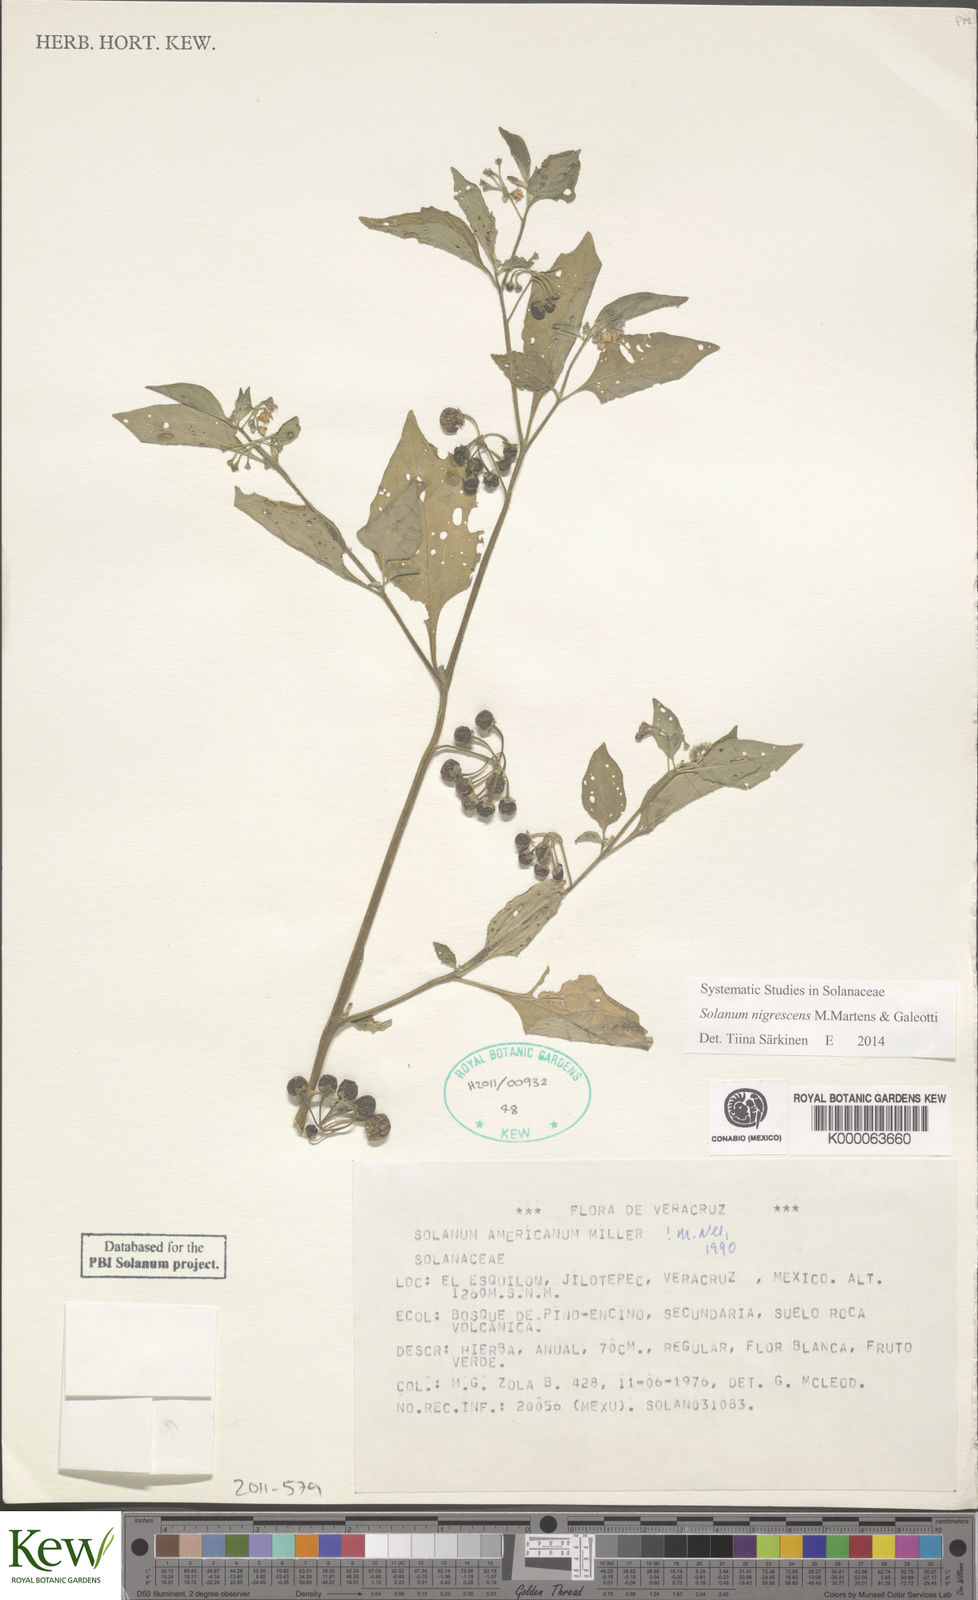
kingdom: Plantae
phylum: Tracheophyta
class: Magnoliopsida
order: Solanales
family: Solanaceae
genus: Solanum
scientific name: Solanum americanum
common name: American black nightshade
